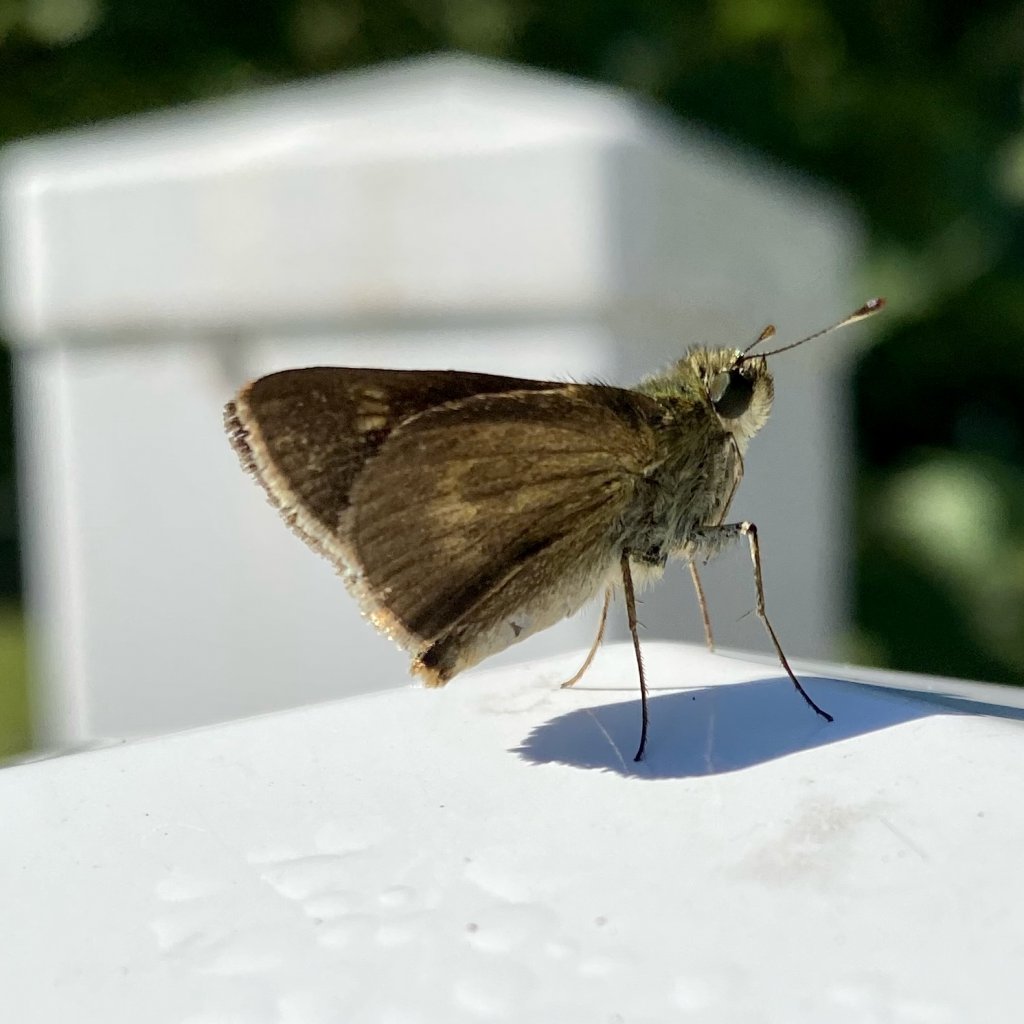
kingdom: Animalia
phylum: Arthropoda
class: Insecta
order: Lepidoptera
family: Hesperiidae
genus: Polites
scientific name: Polites egeremet
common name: Northern Broken-Dash
